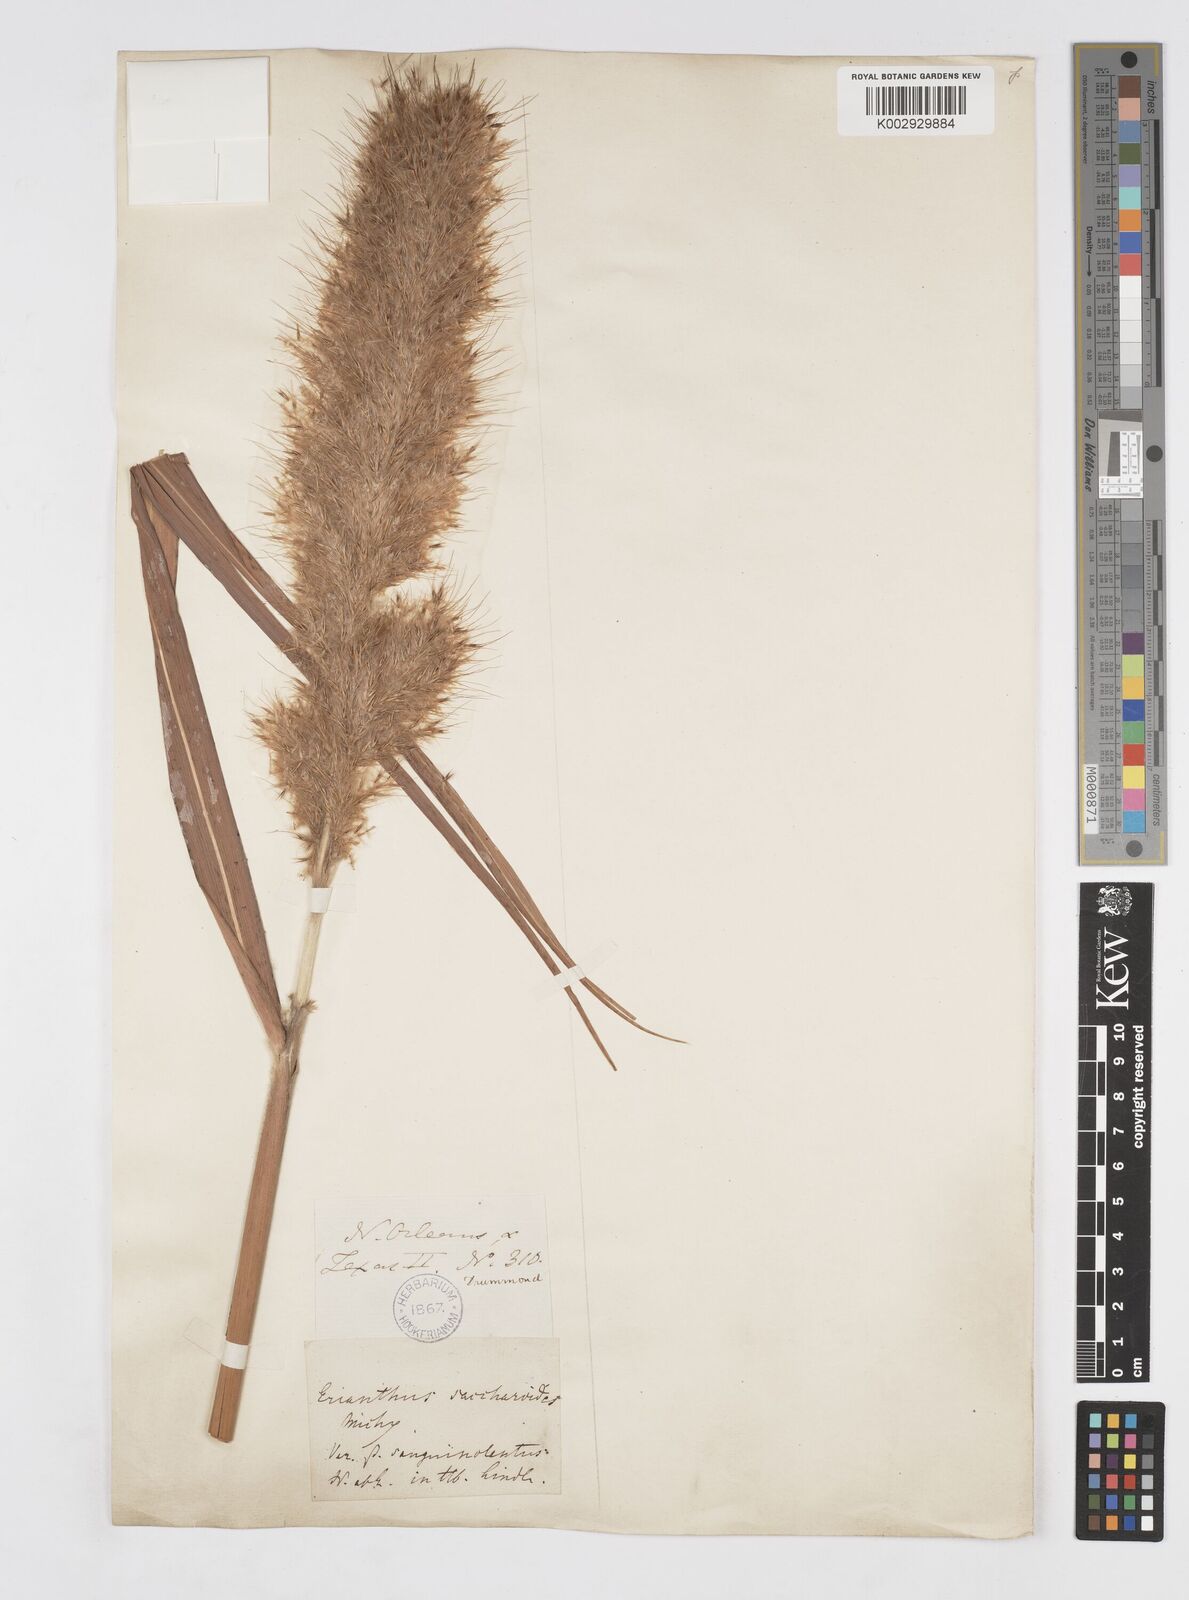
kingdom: Plantae
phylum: Tracheophyta
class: Liliopsida
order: Poales
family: Poaceae
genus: Saccharum
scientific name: Saccharum
